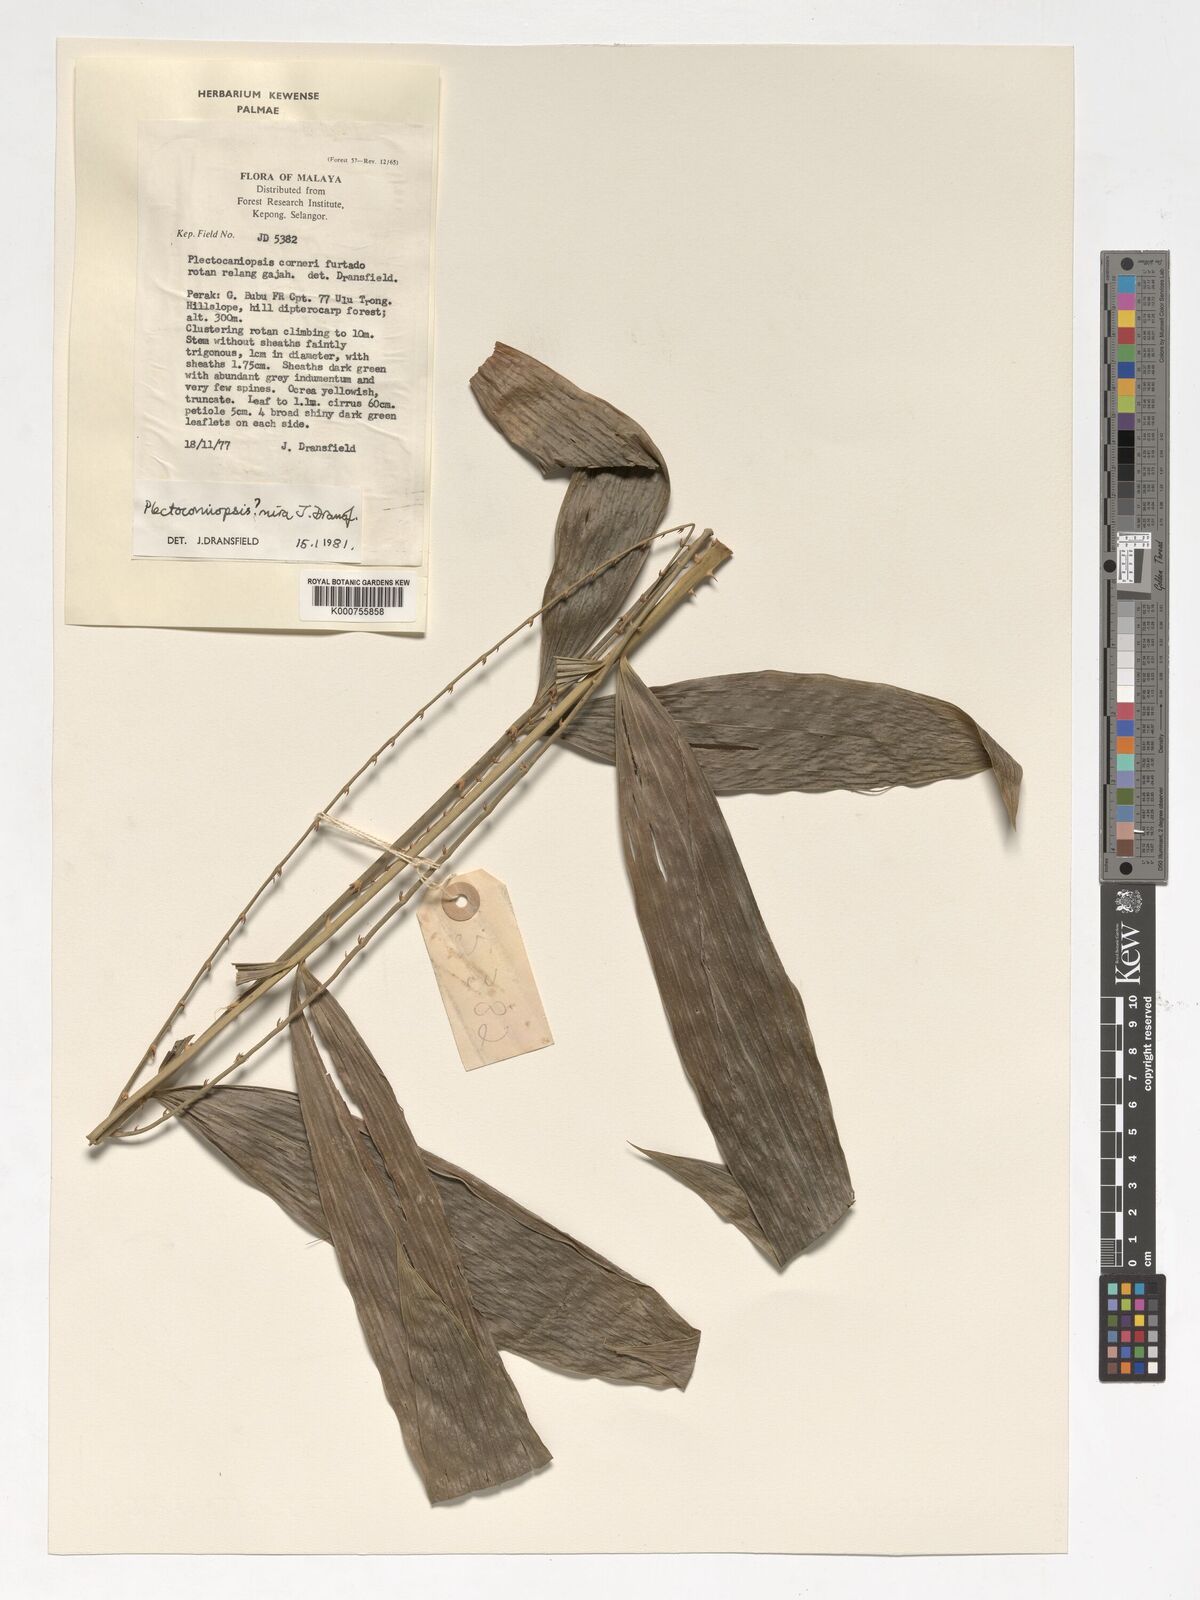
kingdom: Plantae
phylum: Tracheophyta
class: Liliopsida
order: Arecales
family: Arecaceae
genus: Plectocomiopsis
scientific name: Plectocomiopsis mira
